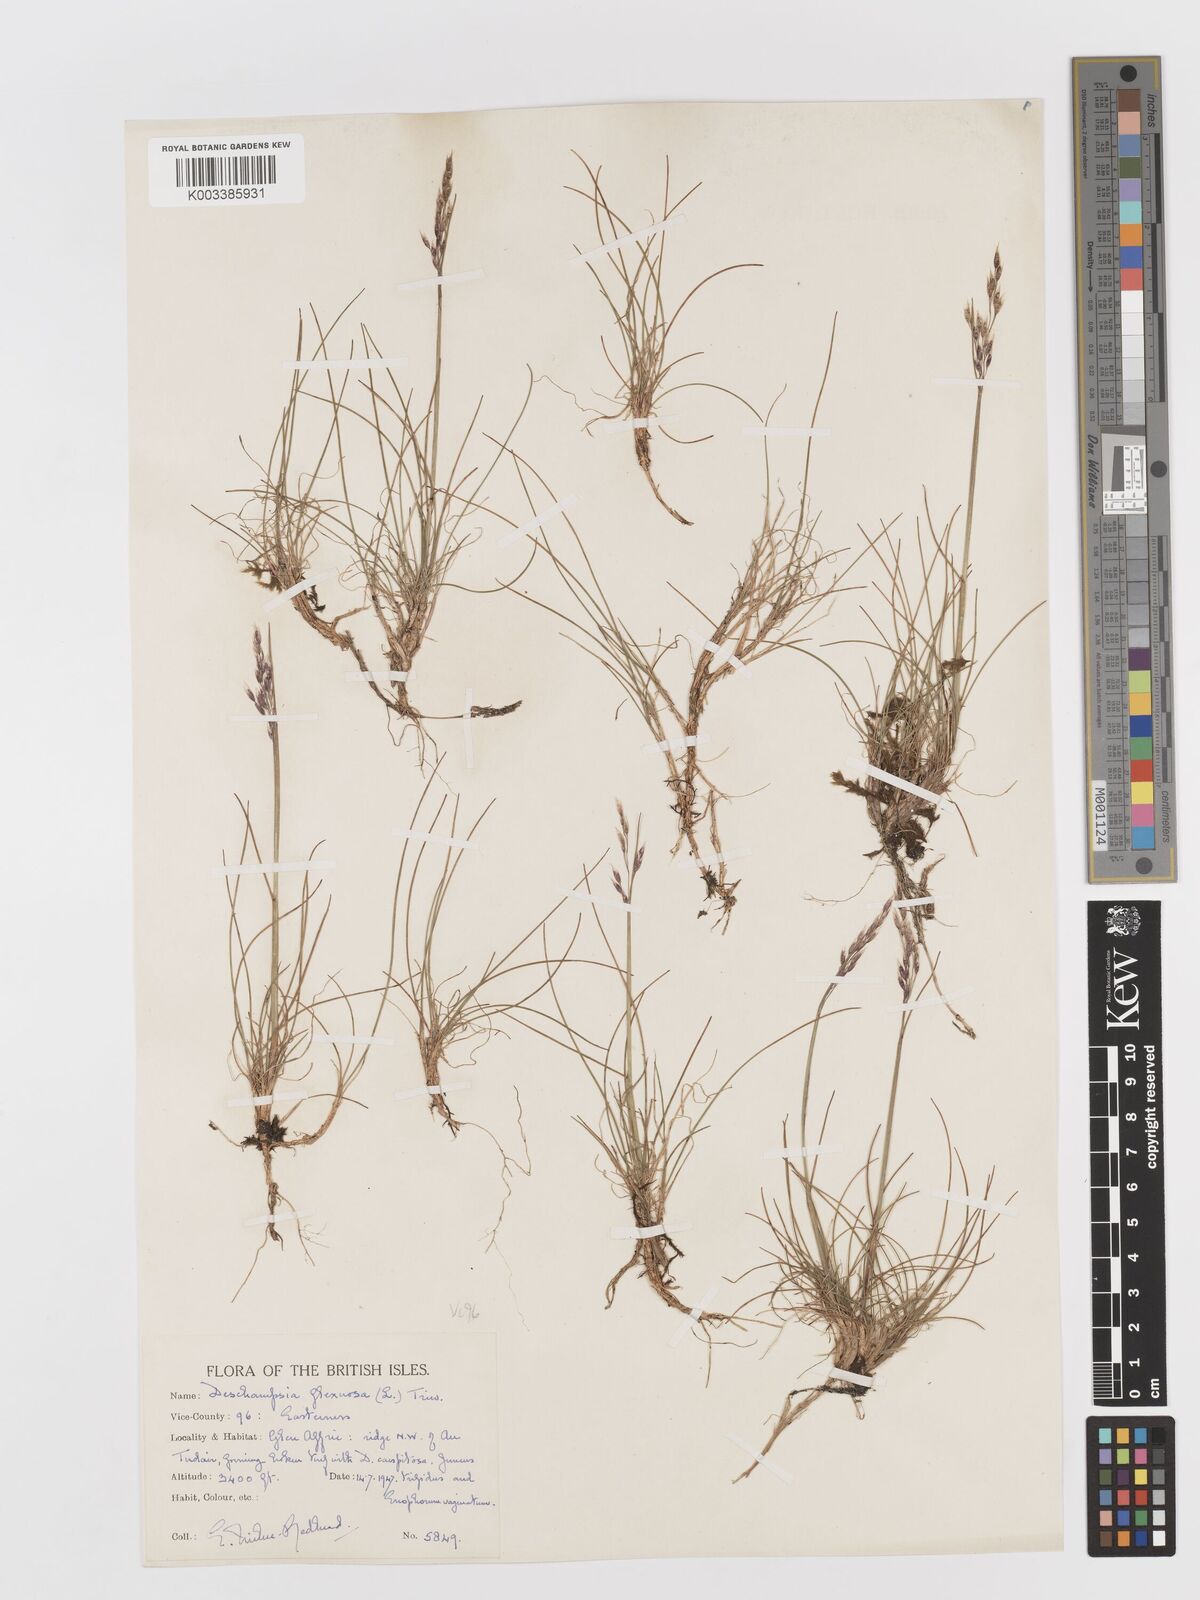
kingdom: Plantae
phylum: Tracheophyta
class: Liliopsida
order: Poales
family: Poaceae
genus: Avenella
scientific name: Avenella flexuosa
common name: Wavy hairgrass
